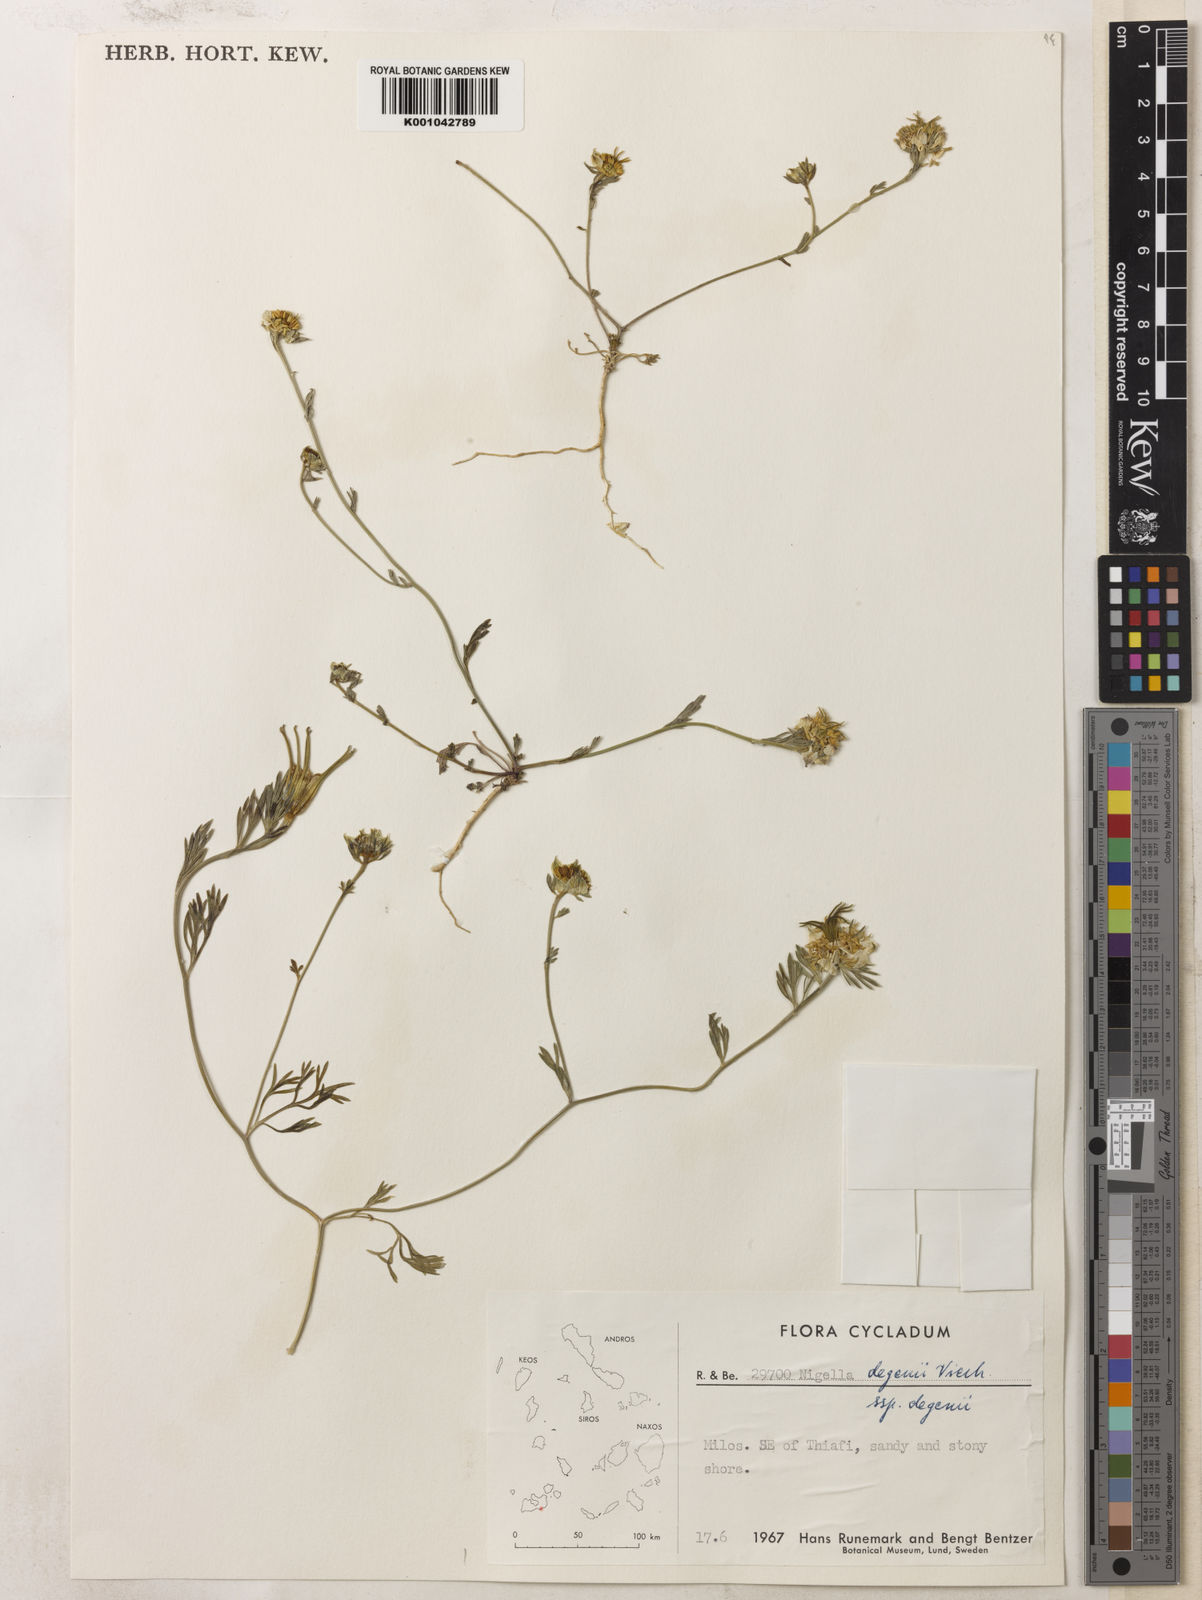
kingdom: Plantae
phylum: Tracheophyta
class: Magnoliopsida
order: Ranunculales
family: Ranunculaceae
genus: Nigella
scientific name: Nigella degenii
